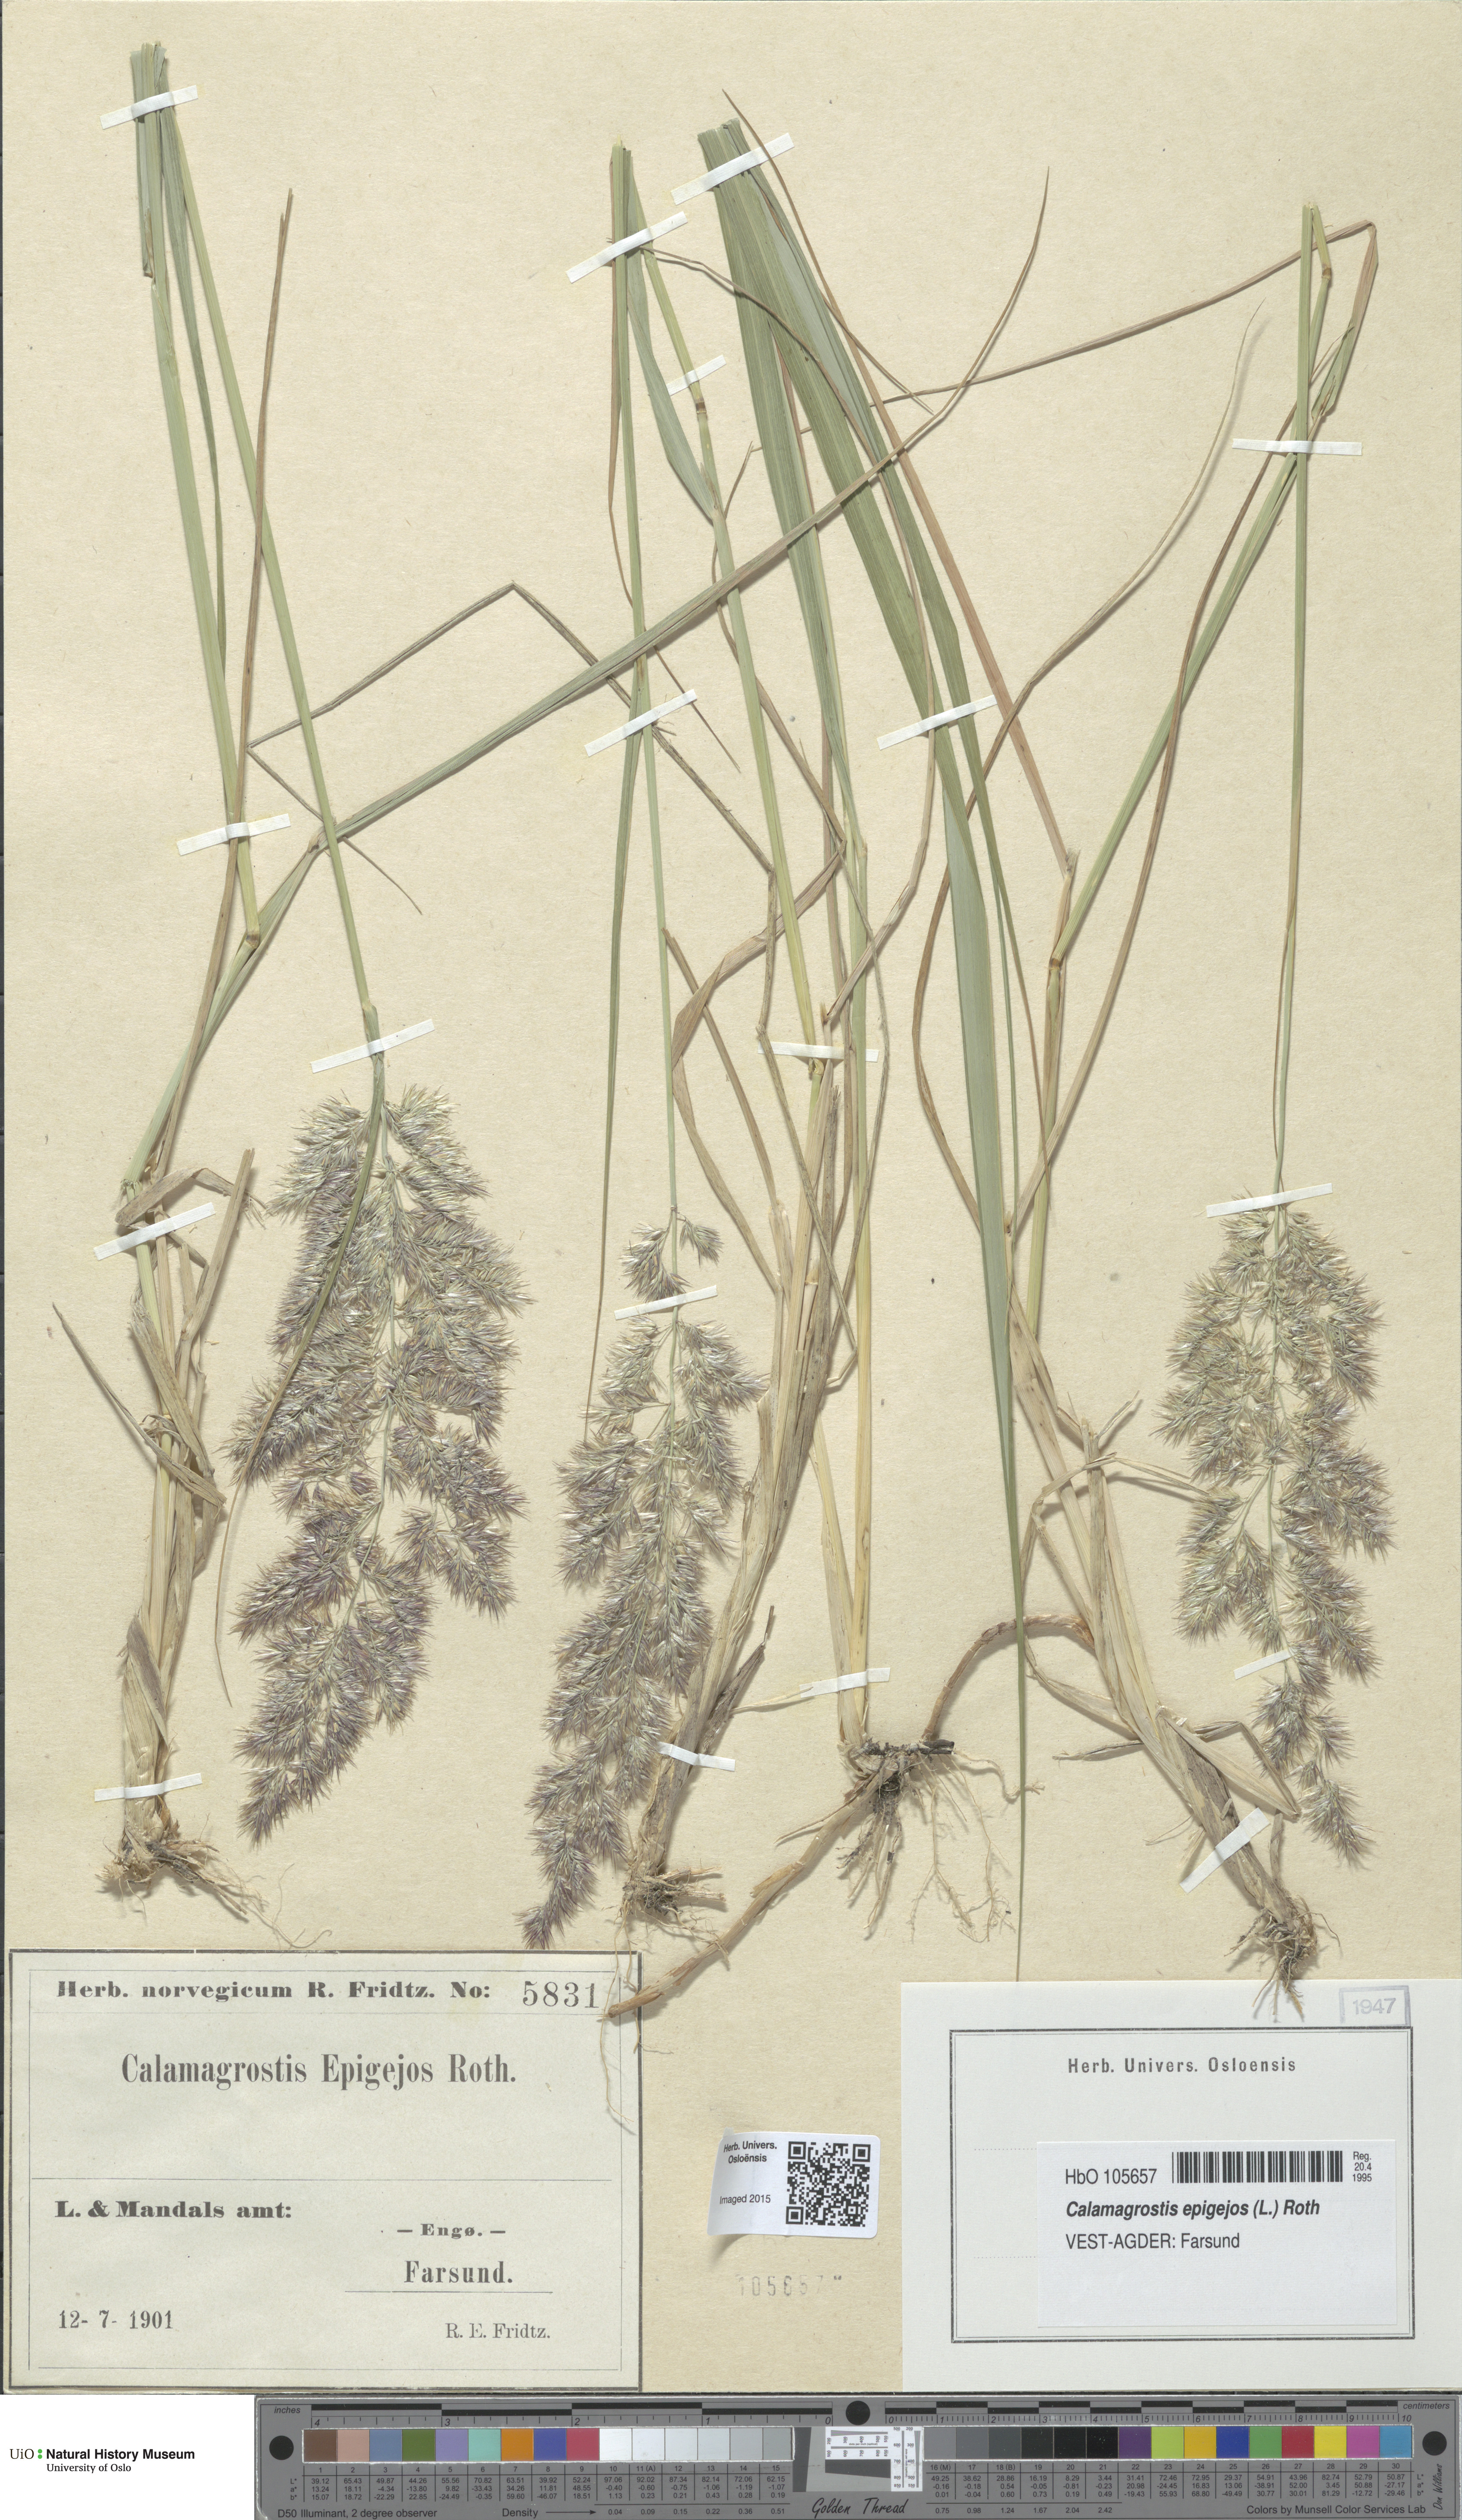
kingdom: Plantae
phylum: Tracheophyta
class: Liliopsida
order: Poales
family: Poaceae
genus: Calamagrostis
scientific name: Calamagrostis epigejos
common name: Wood small-reed
